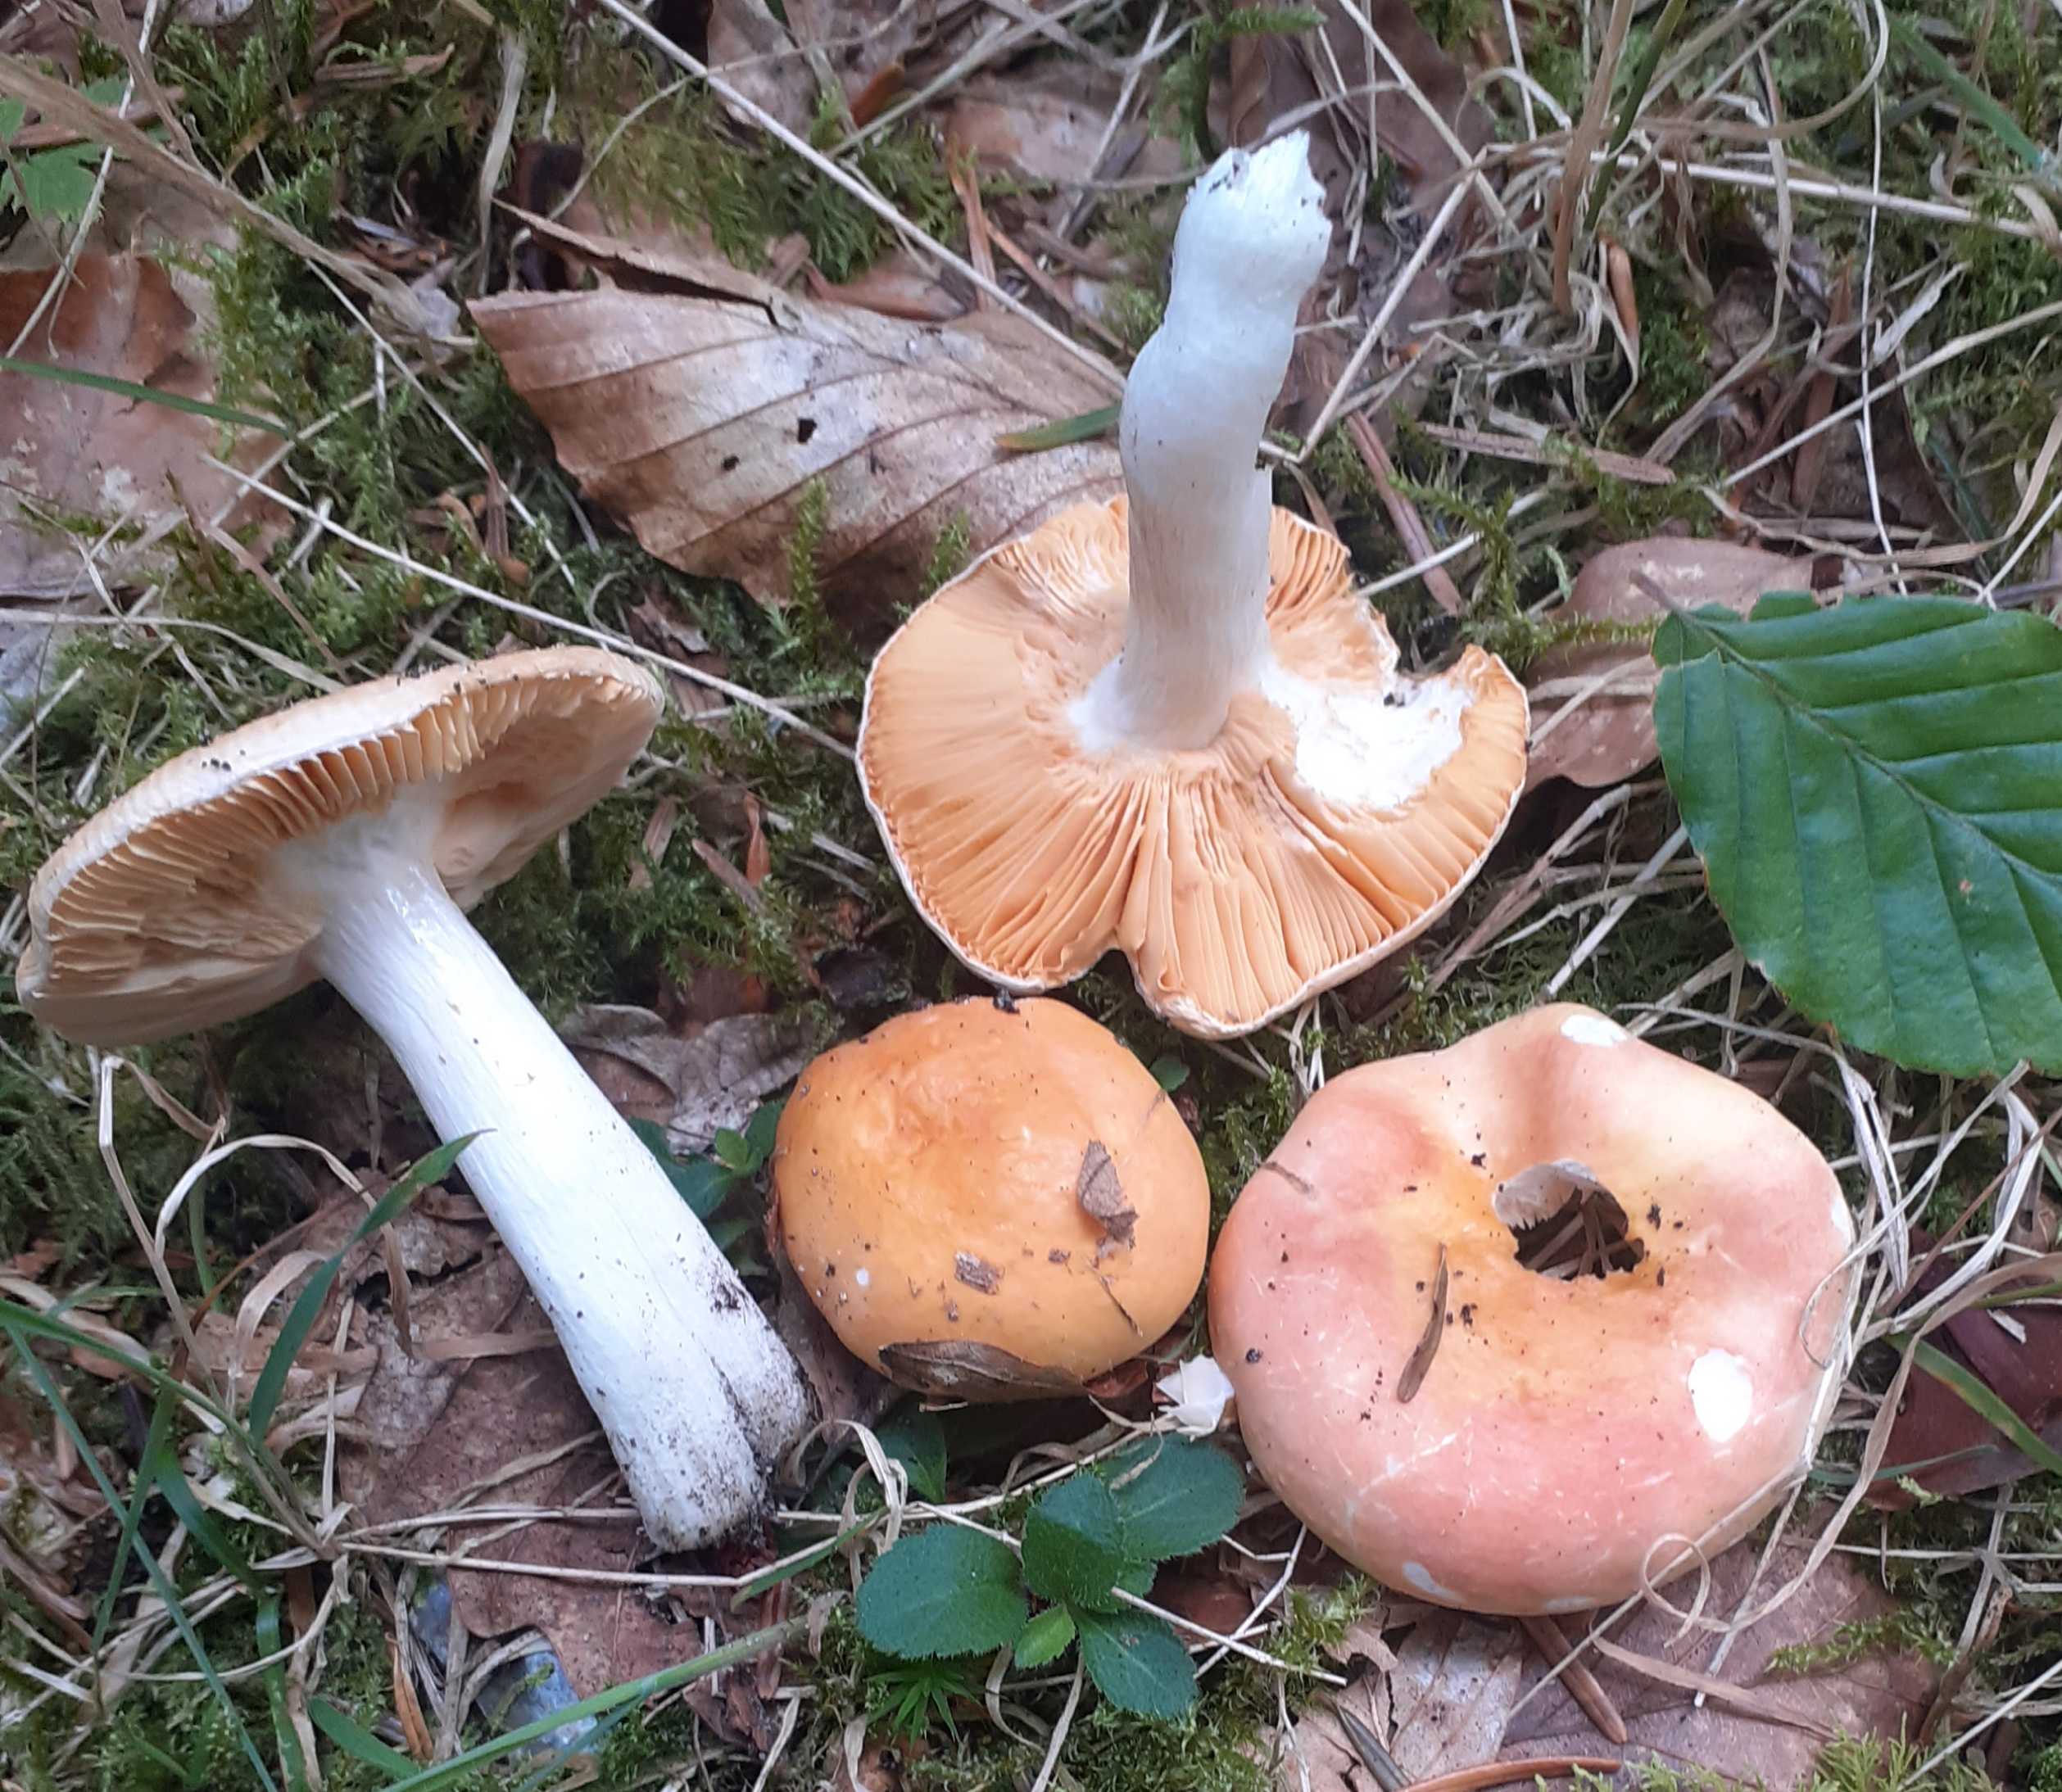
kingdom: Fungi
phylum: Basidiomycota
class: Agaricomycetes
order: Russulales
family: Russulaceae
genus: Russula
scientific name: Russula risigallina
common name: abrikos-skørhat
